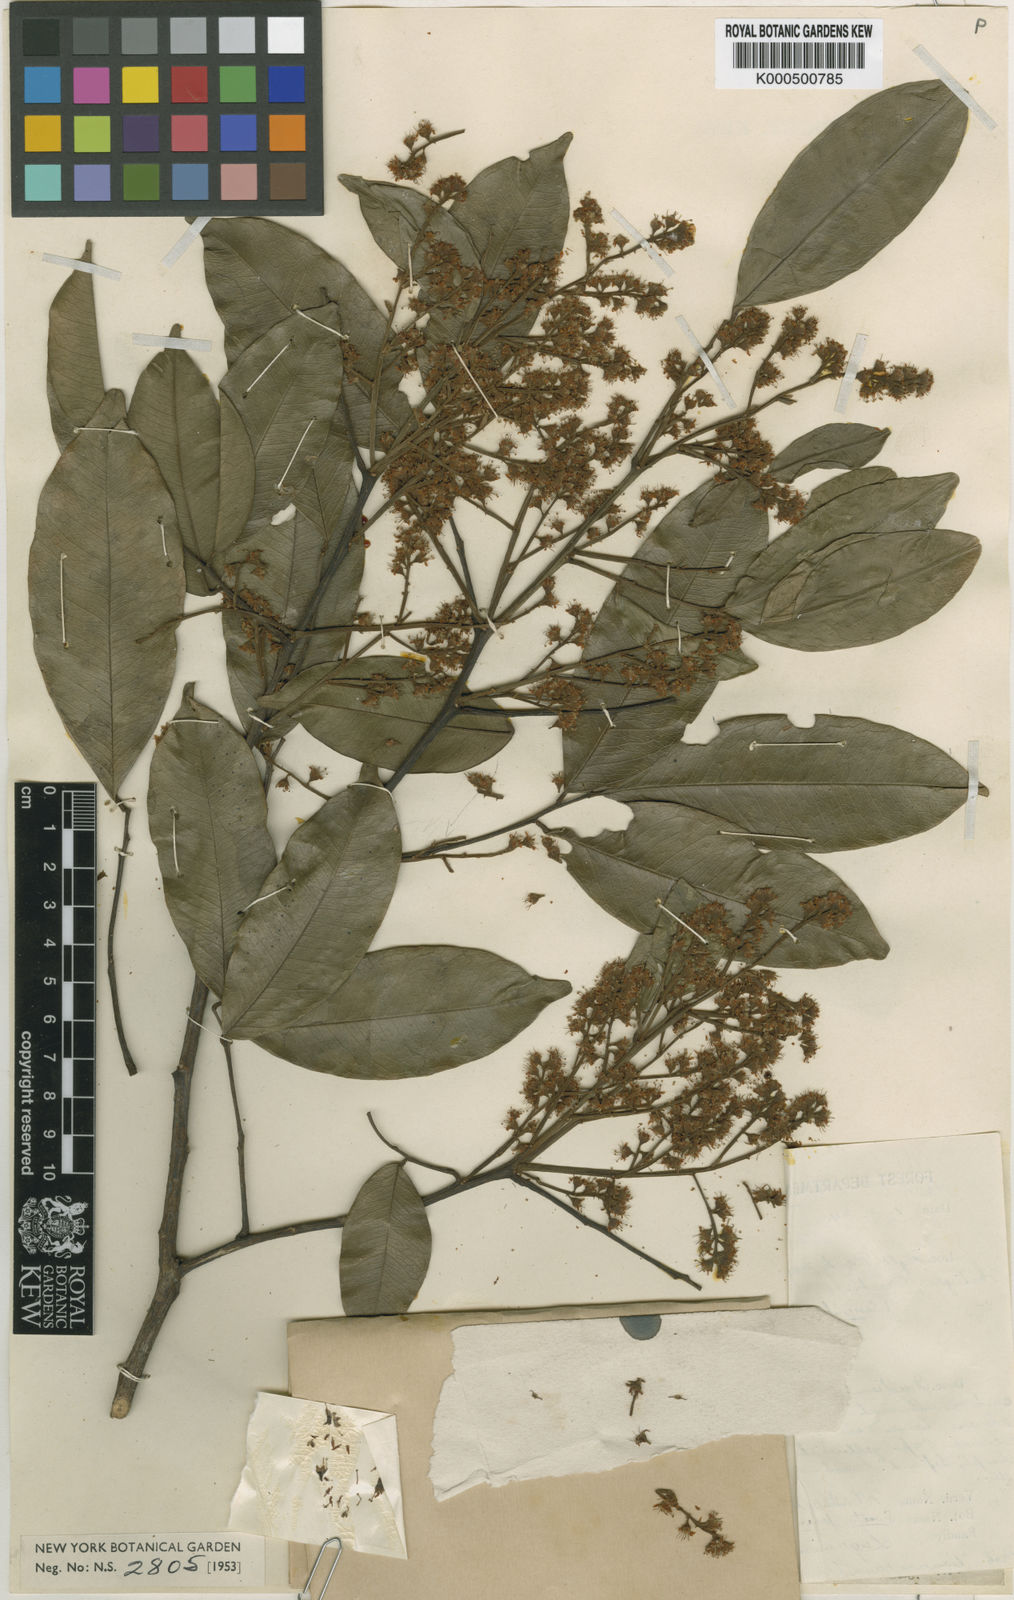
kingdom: Plantae
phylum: Tracheophyta
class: Magnoliopsida
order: Fabales
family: Fabaceae
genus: Guianodendron
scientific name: Guianodendron praeclarum
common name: Blackheart
